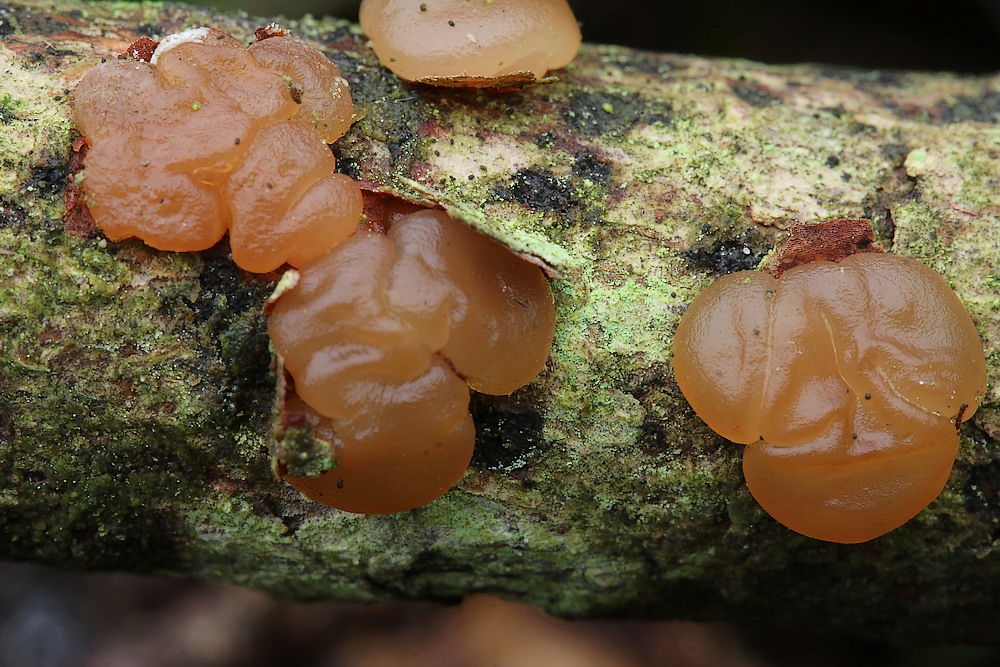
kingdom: Fungi
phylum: Basidiomycota
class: Agaricomycetes
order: Auriculariales
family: Auriculariaceae
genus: Exidia
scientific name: Exidia saccharina
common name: kandis-bævretop
